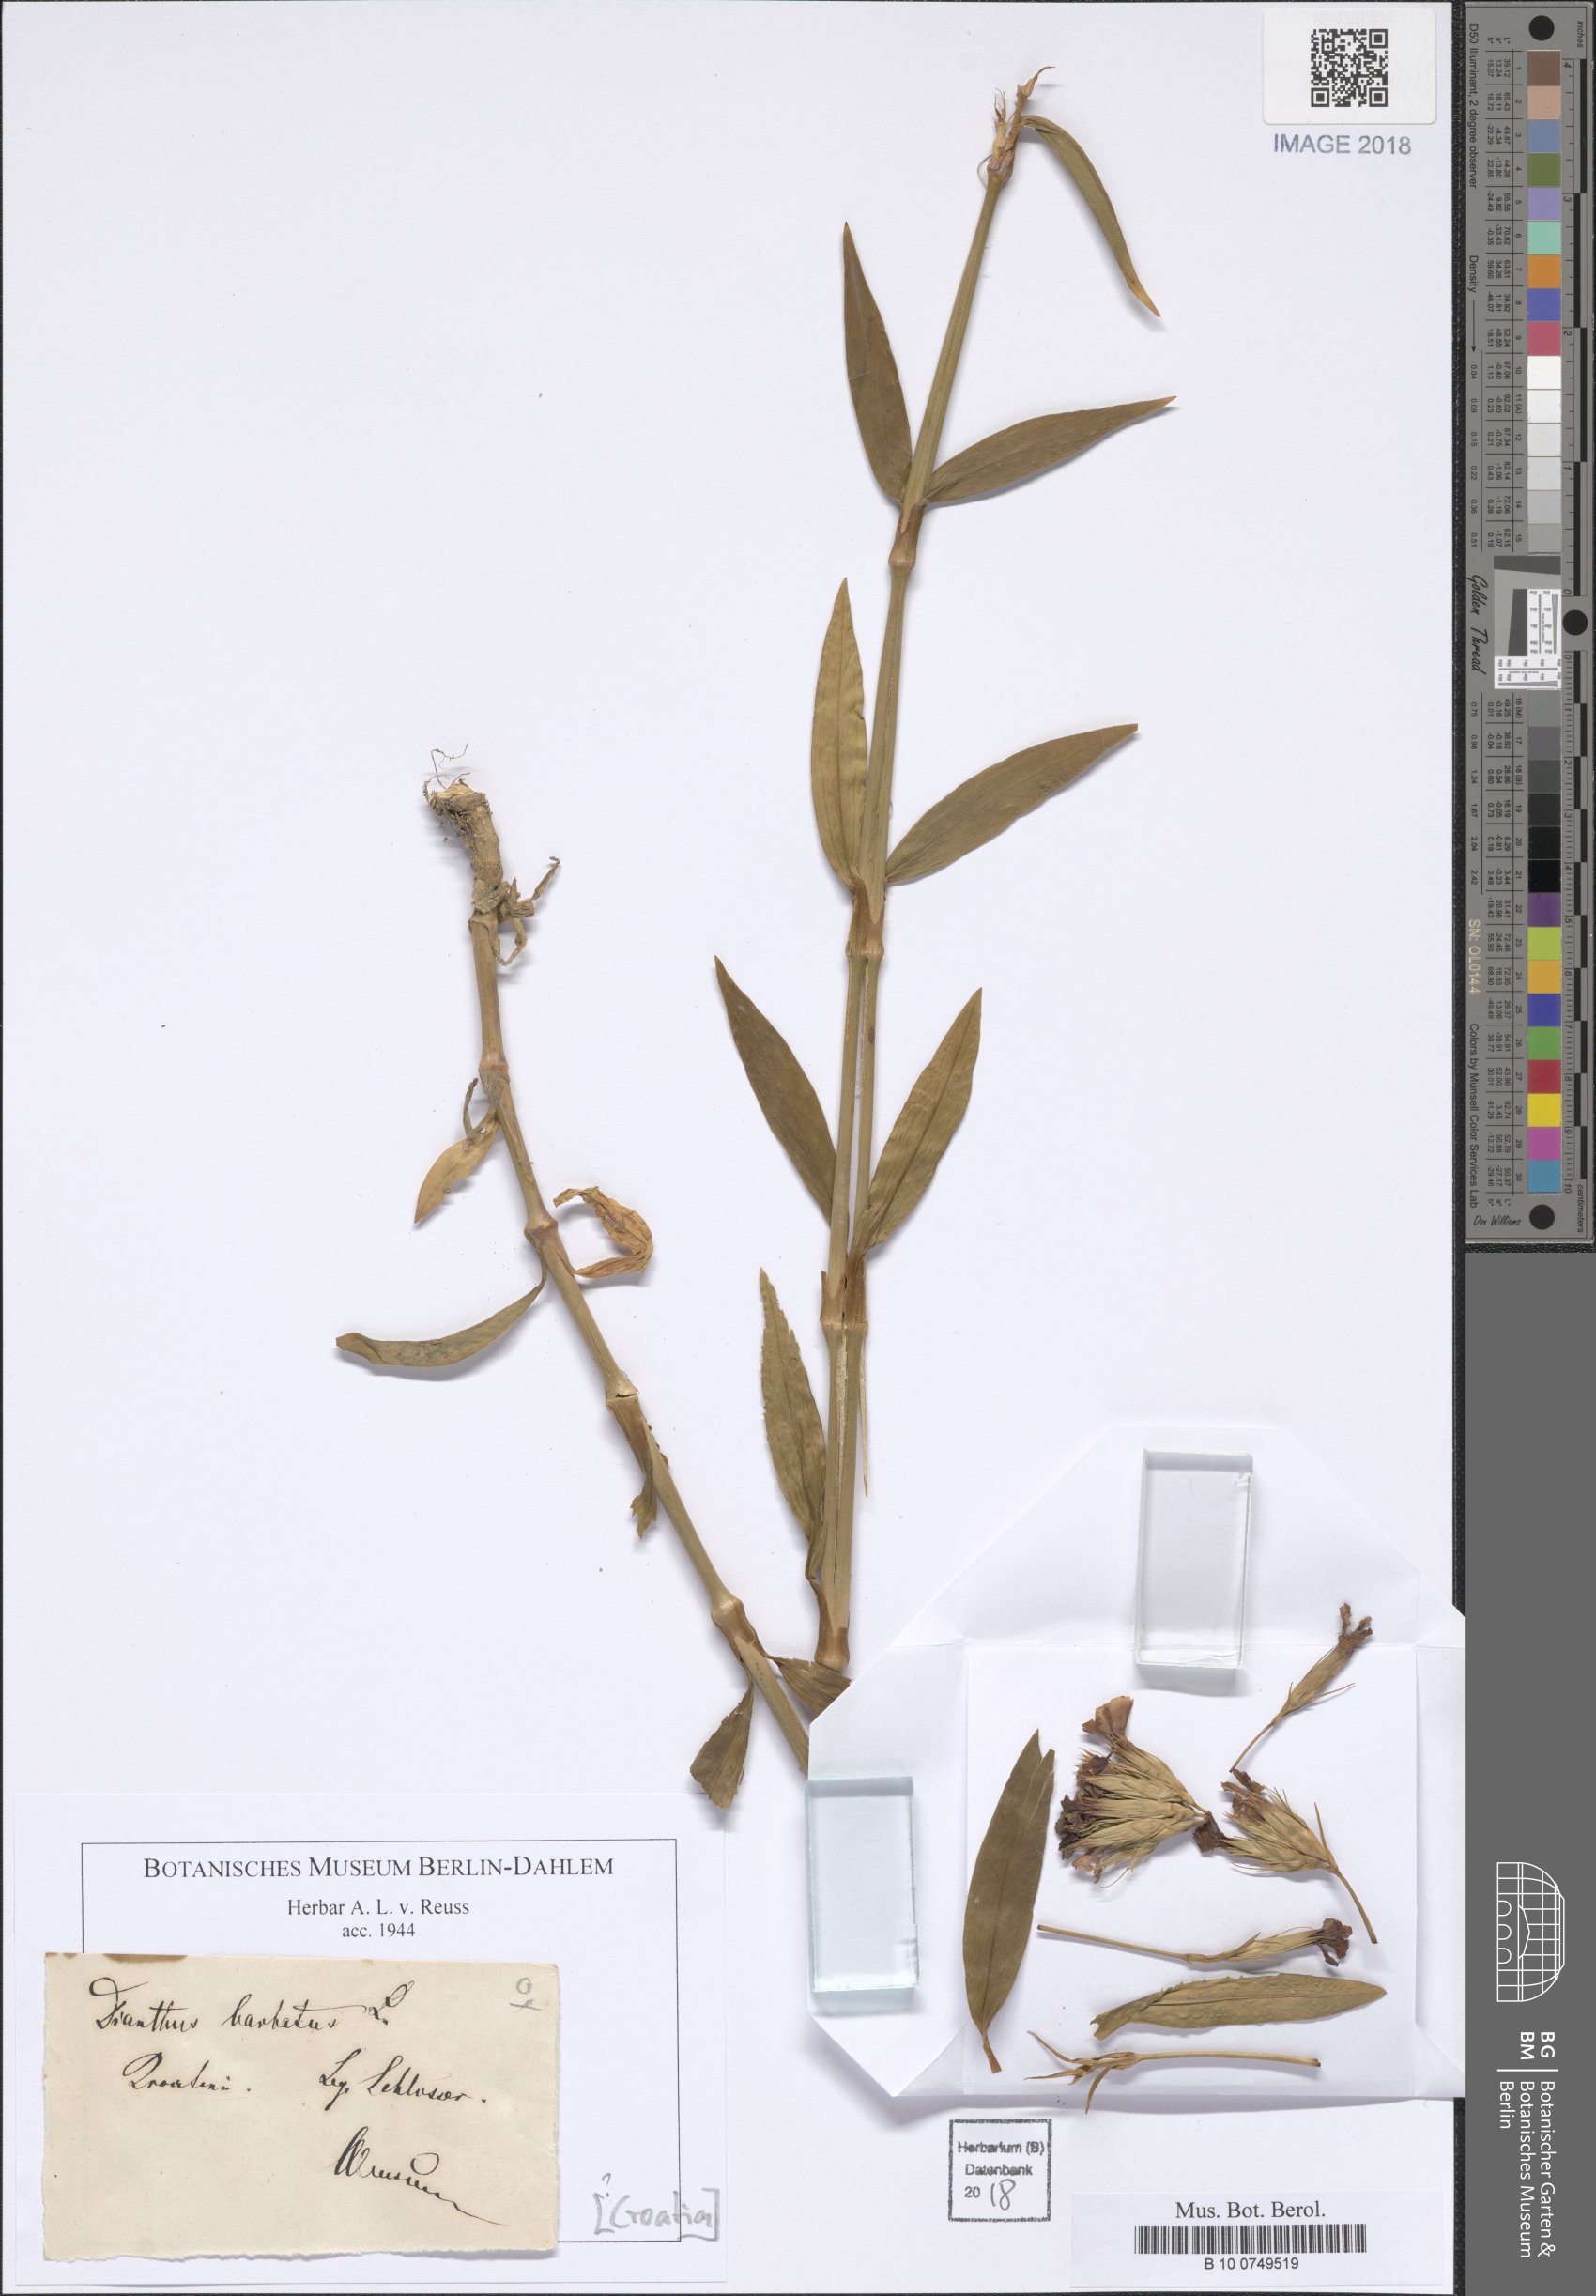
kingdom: Plantae
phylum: Tracheophyta
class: Magnoliopsida
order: Caryophyllales
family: Caryophyllaceae
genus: Dianthus
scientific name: Dianthus barbatus
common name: Sweet-william
